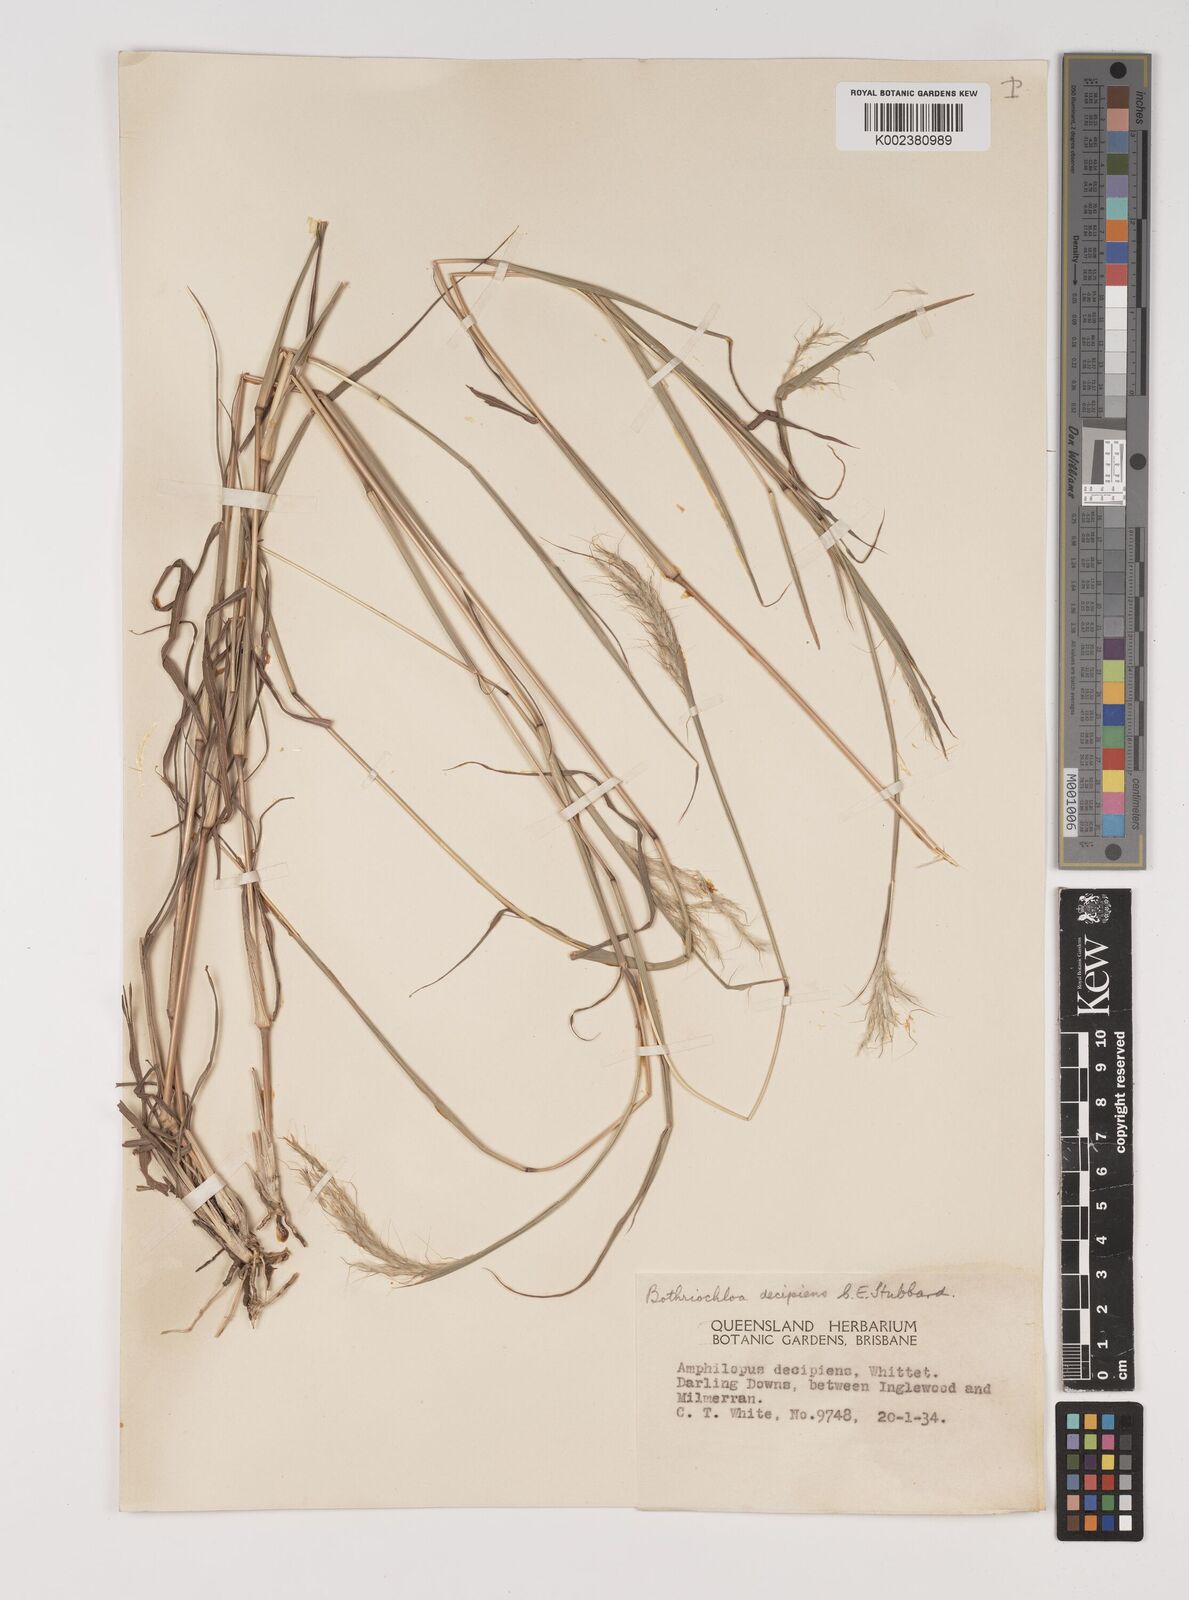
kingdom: Plantae
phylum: Tracheophyta
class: Liliopsida
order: Poales
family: Poaceae
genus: Bothriochloa
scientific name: Bothriochloa decipiens
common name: Pitted-bluegrass
